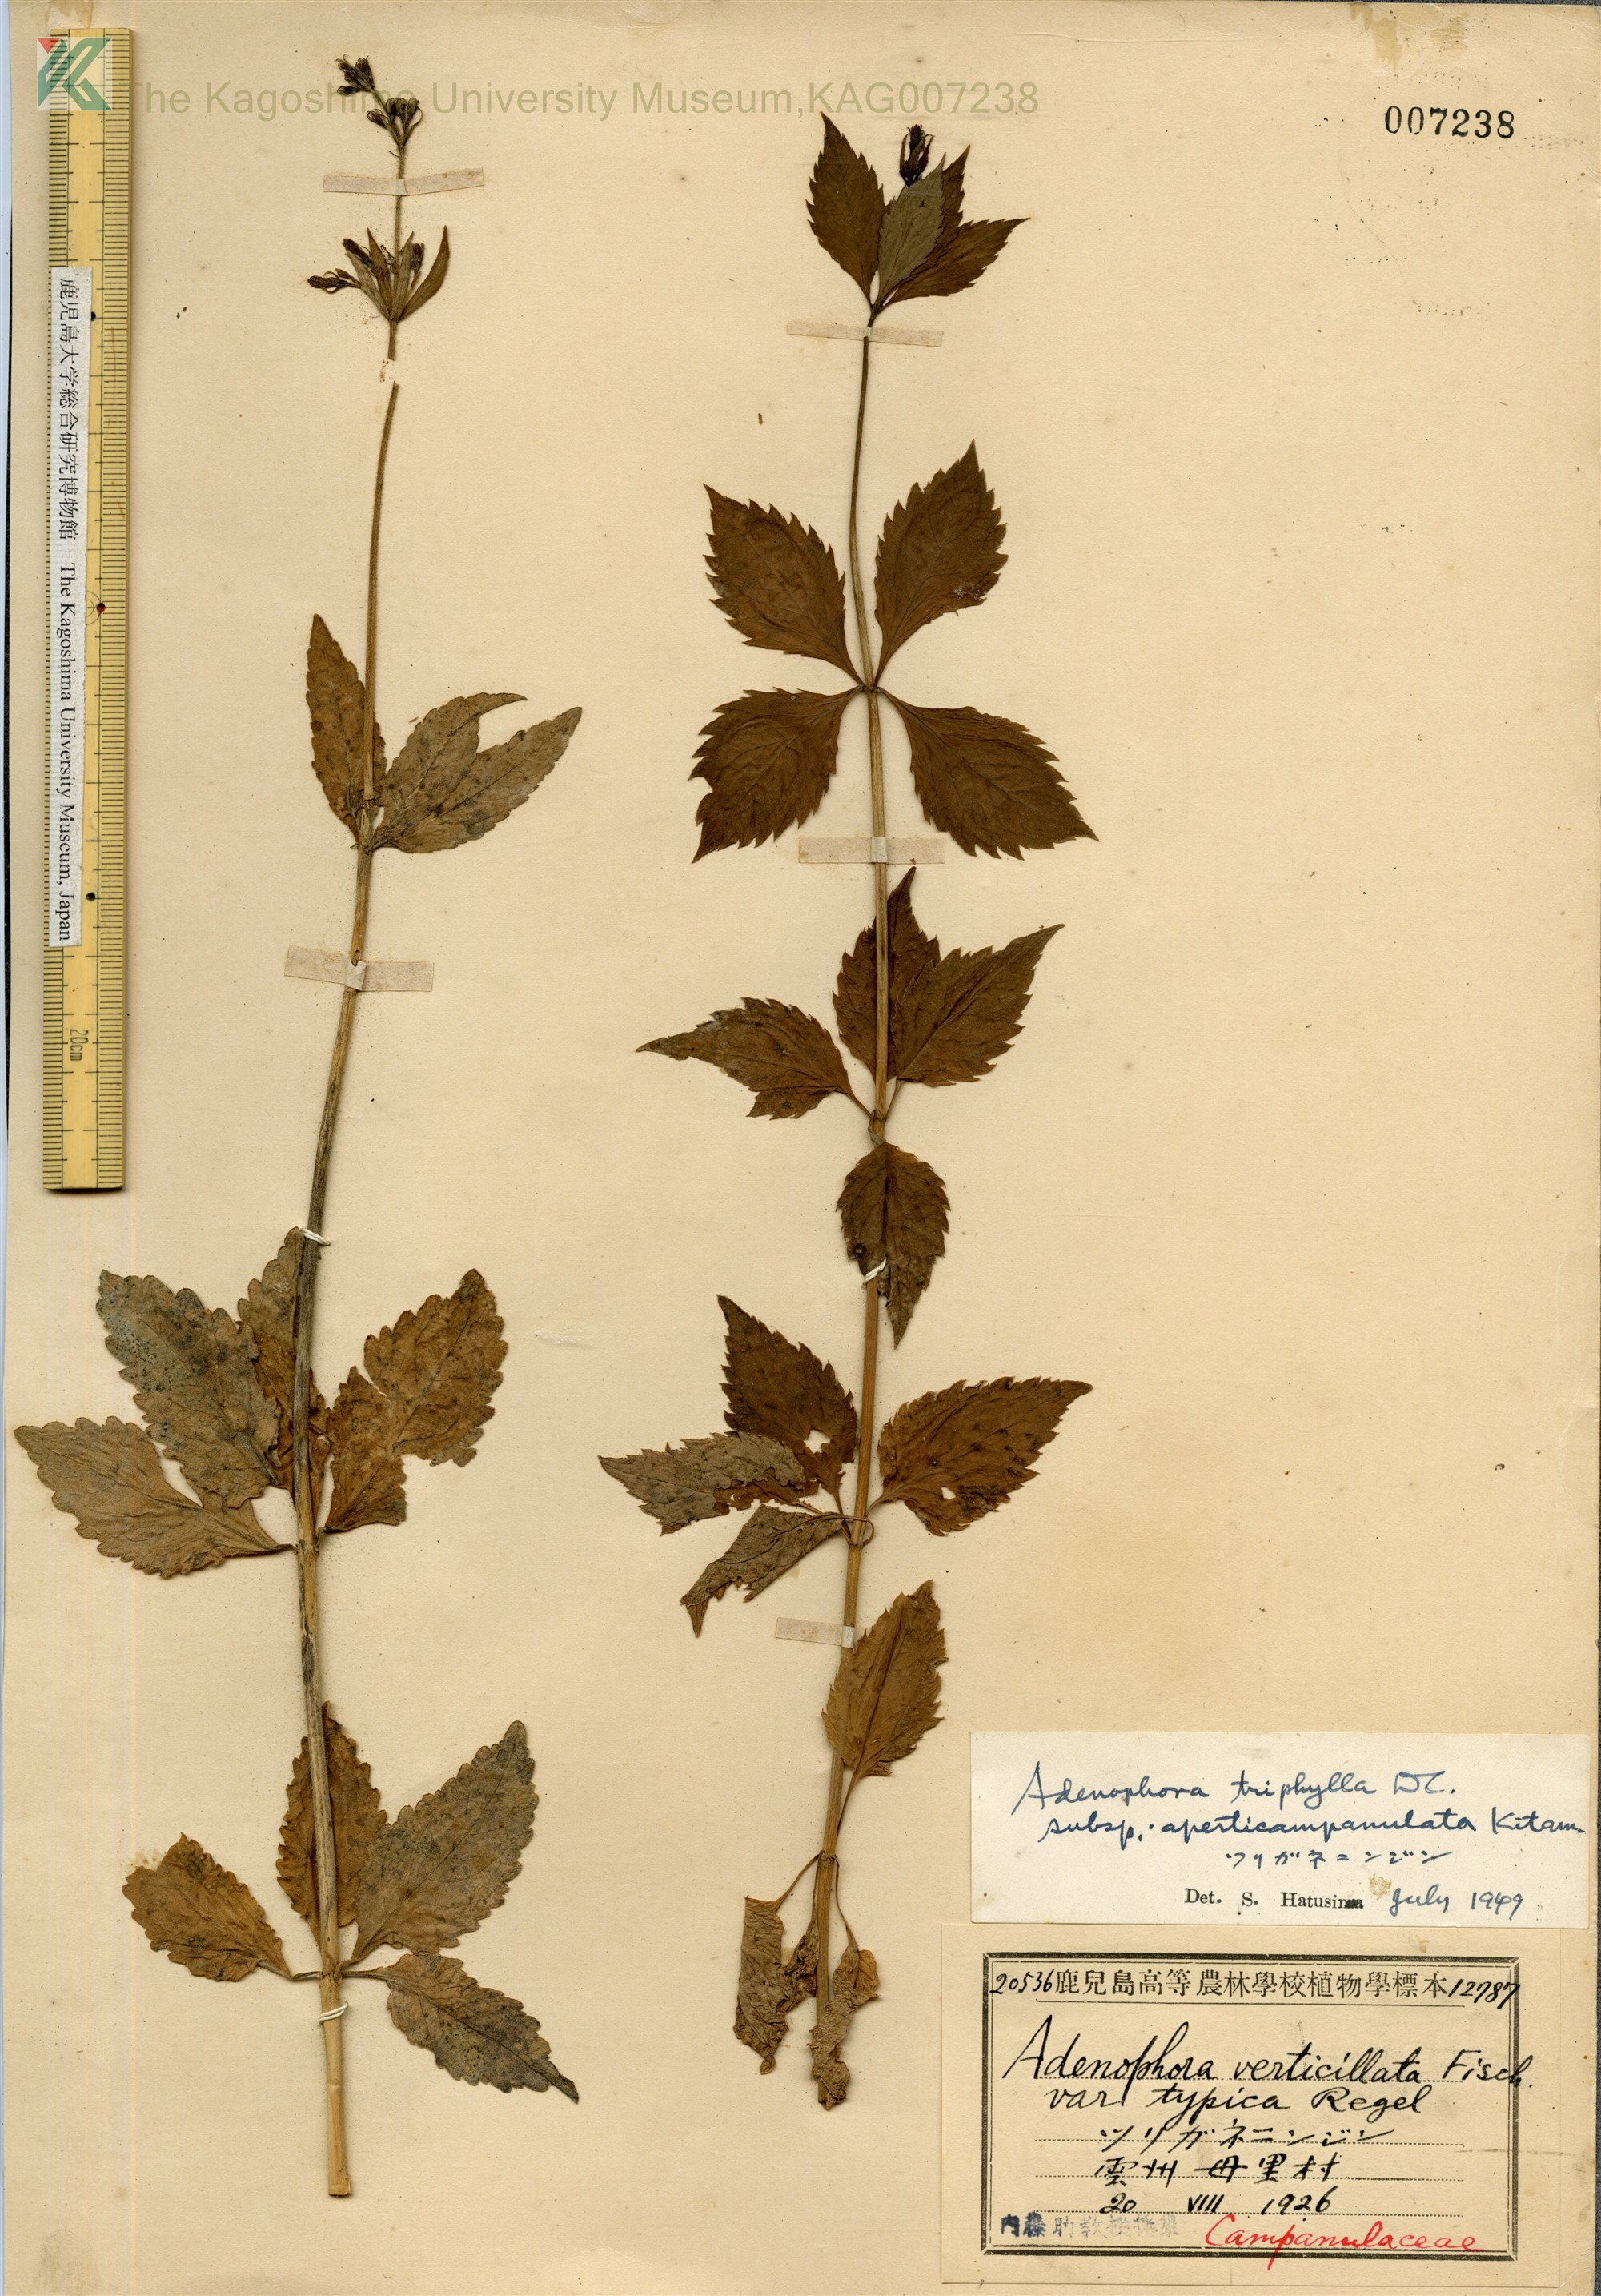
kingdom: Plantae
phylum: Tracheophyta
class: Magnoliopsida
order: Asterales
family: Campanulaceae
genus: Adenophora
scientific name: Adenophora triphylla
